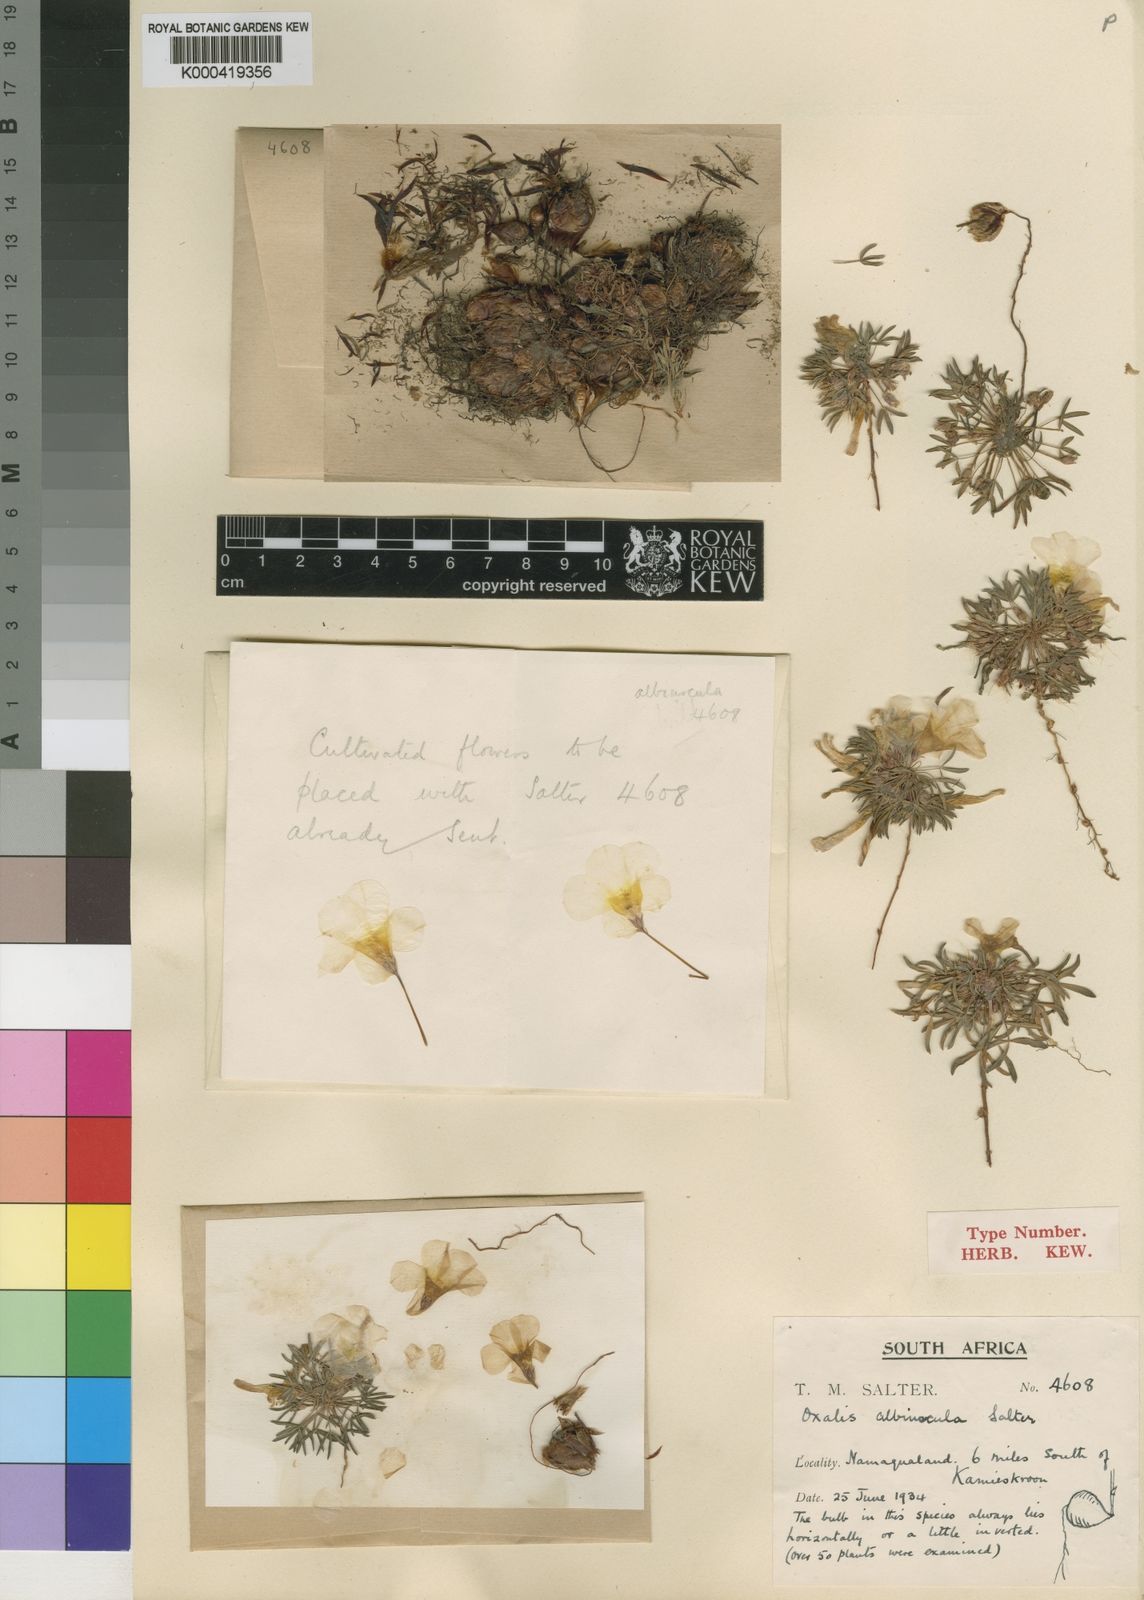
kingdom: Plantae
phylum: Tracheophyta
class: Magnoliopsida
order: Oxalidales
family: Oxalidaceae
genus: Oxalis
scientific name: Oxalis albiuscula
